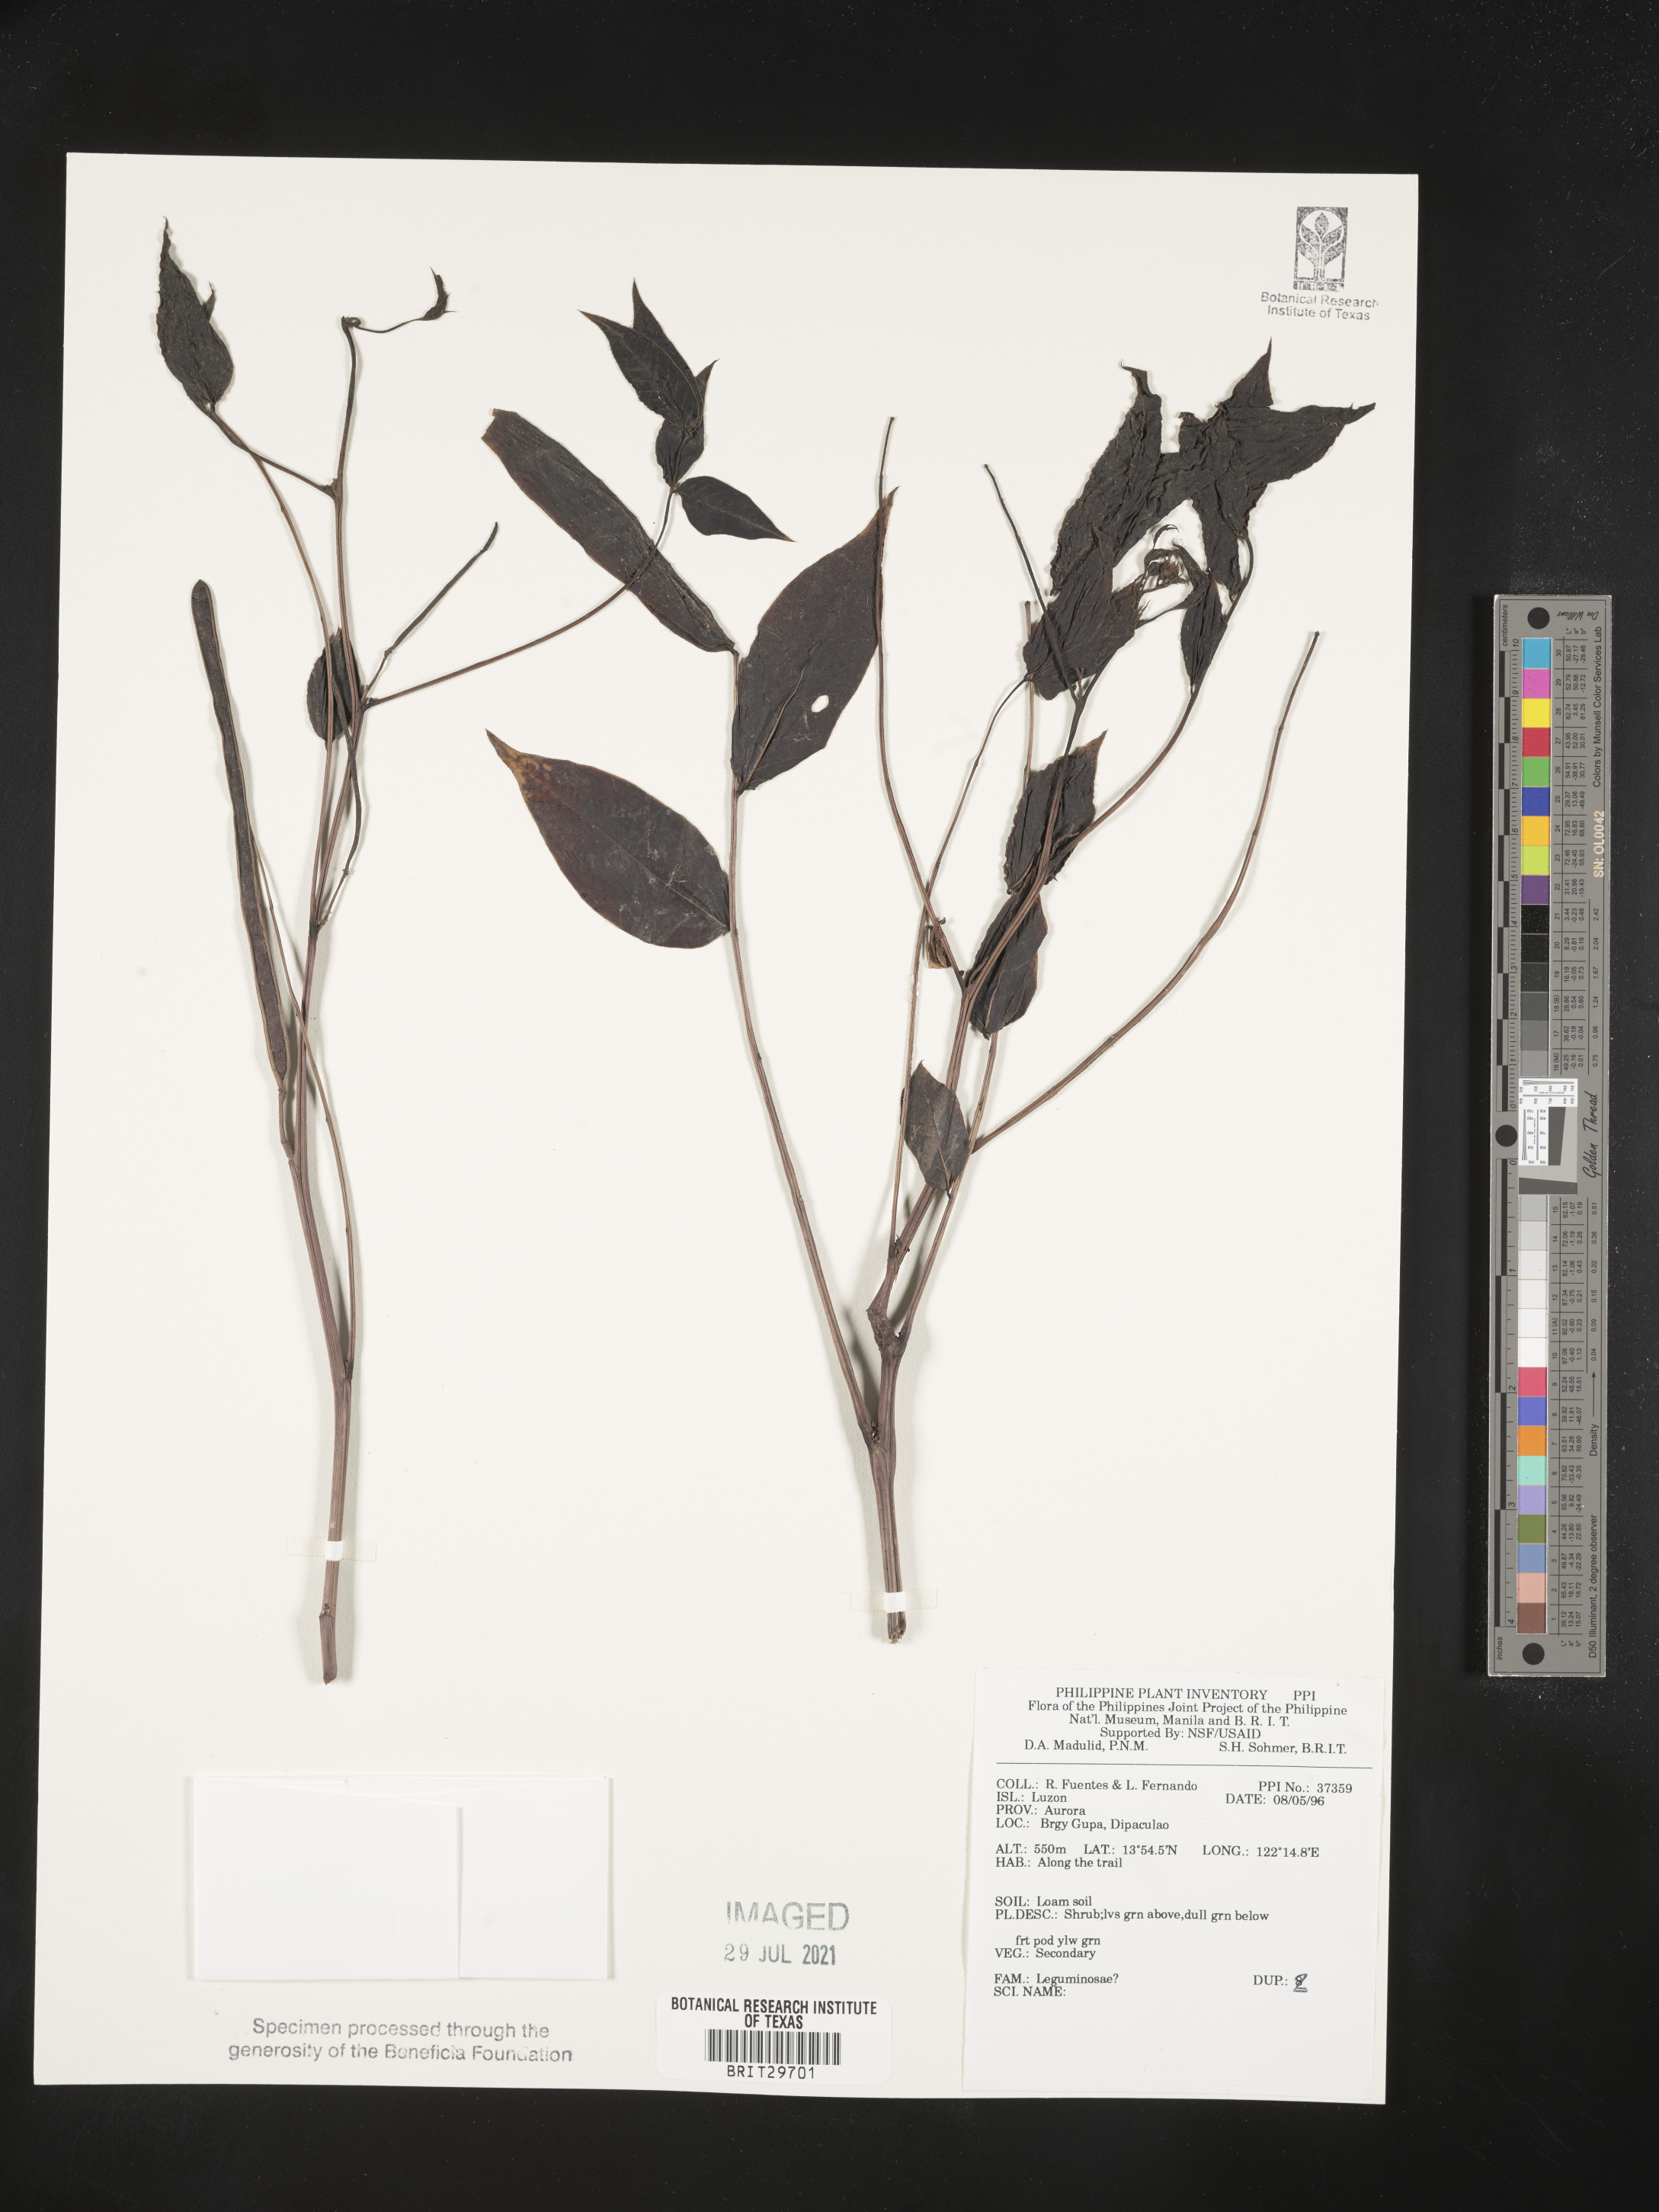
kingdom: Plantae
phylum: Tracheophyta
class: Magnoliopsida
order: Fabales
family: Fabaceae
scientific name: Fabaceae
